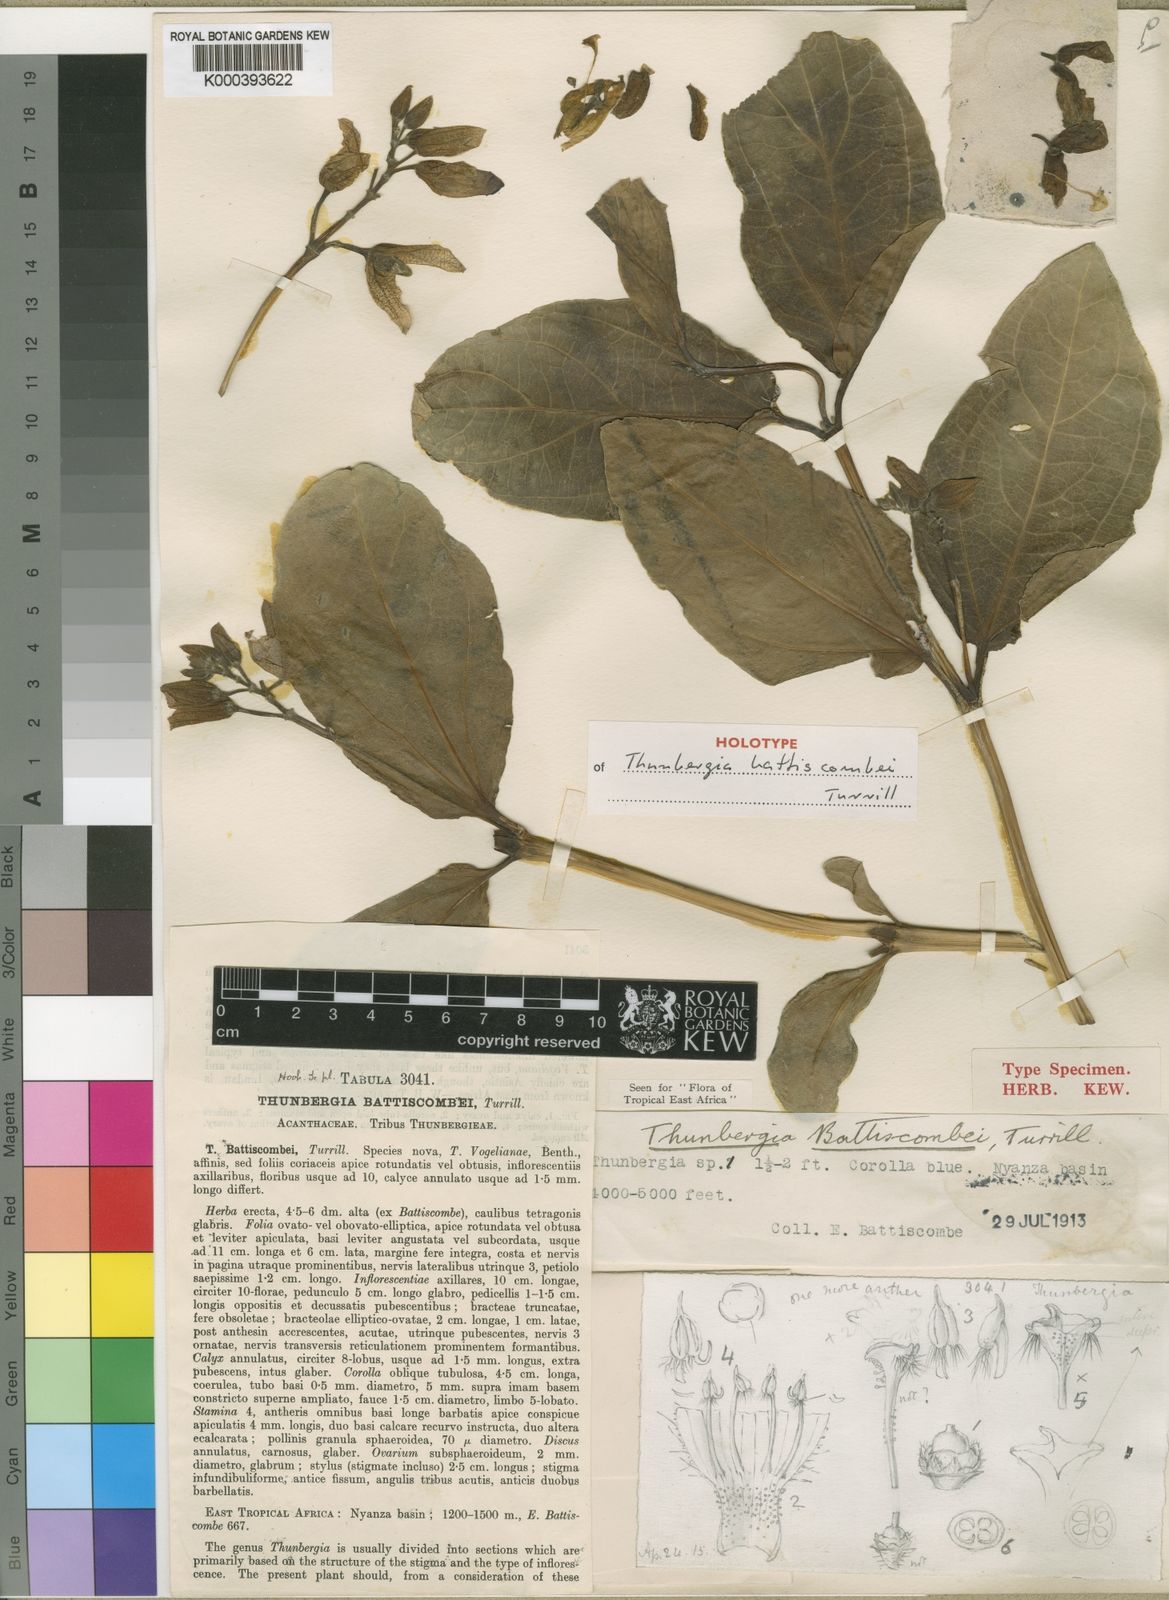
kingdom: Plantae
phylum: Tracheophyta
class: Magnoliopsida
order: Lamiales
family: Acanthaceae
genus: Thunbergia
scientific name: Thunbergia battiscombei
